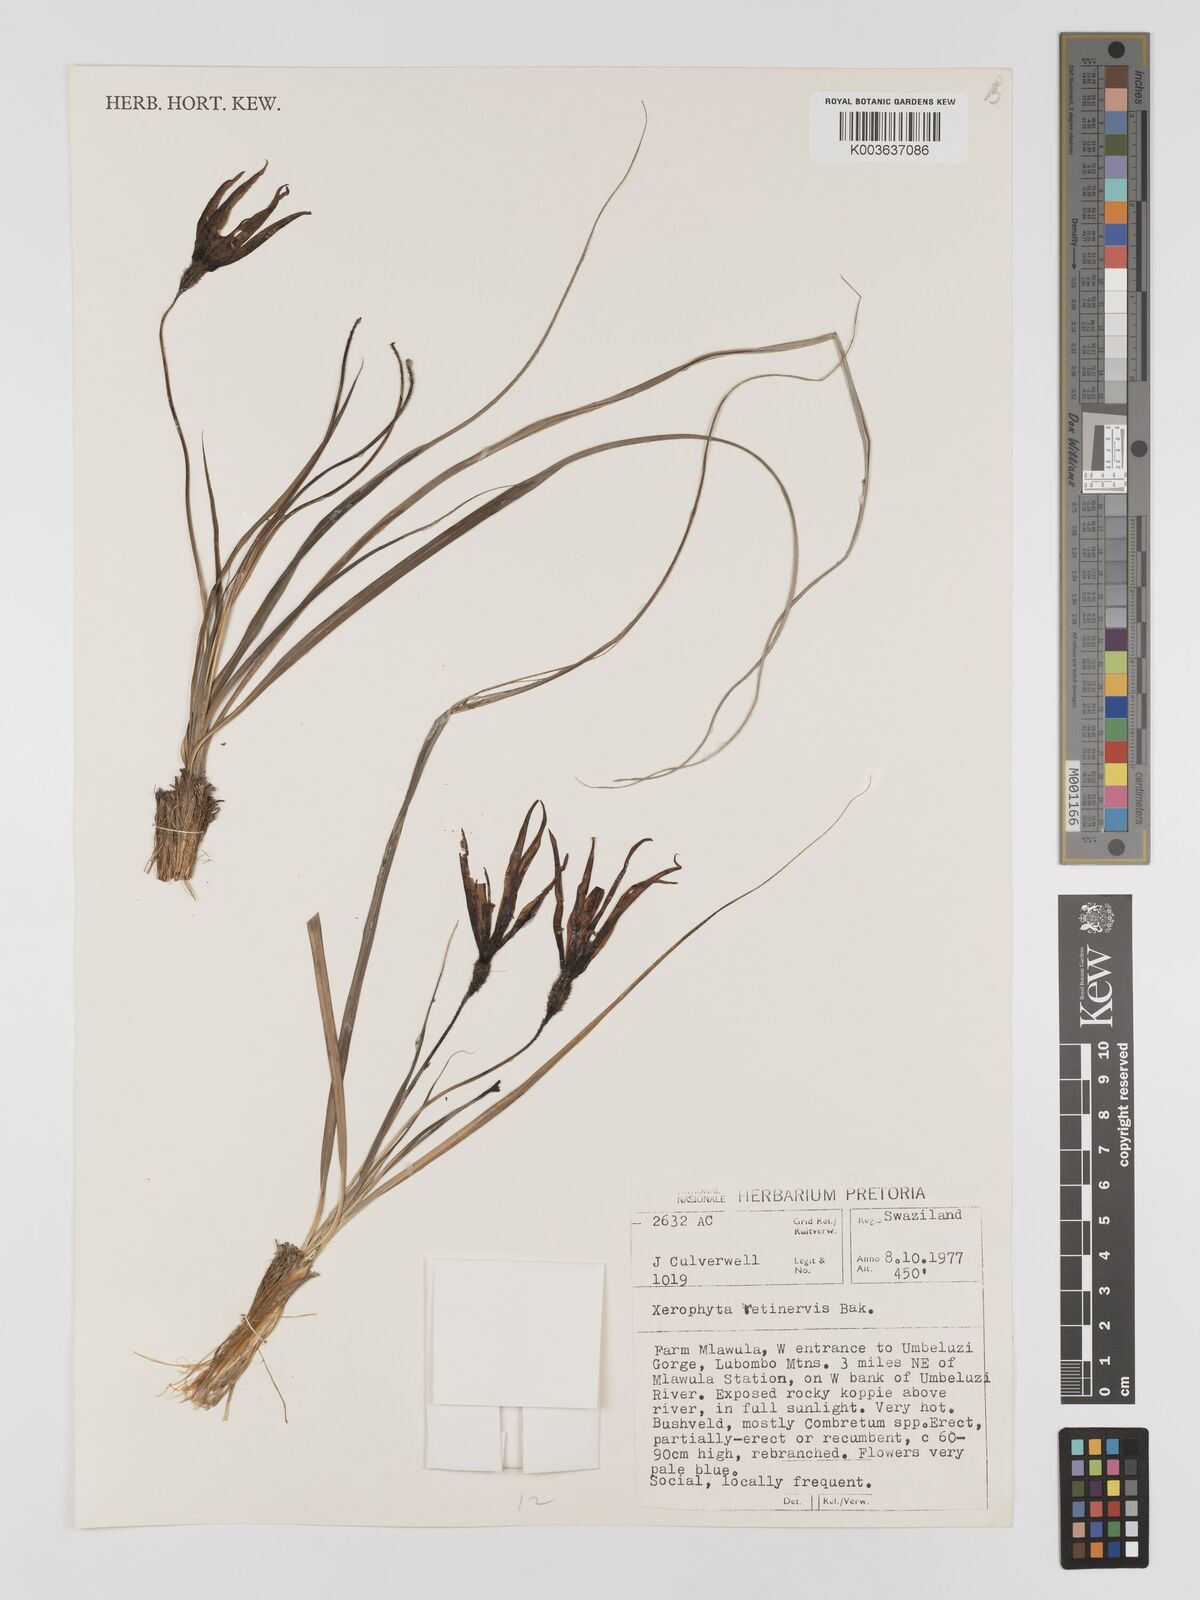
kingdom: Plantae
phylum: Tracheophyta
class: Liliopsida
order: Pandanales
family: Velloziaceae
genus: Xerophyta
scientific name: Xerophyta retinervis
